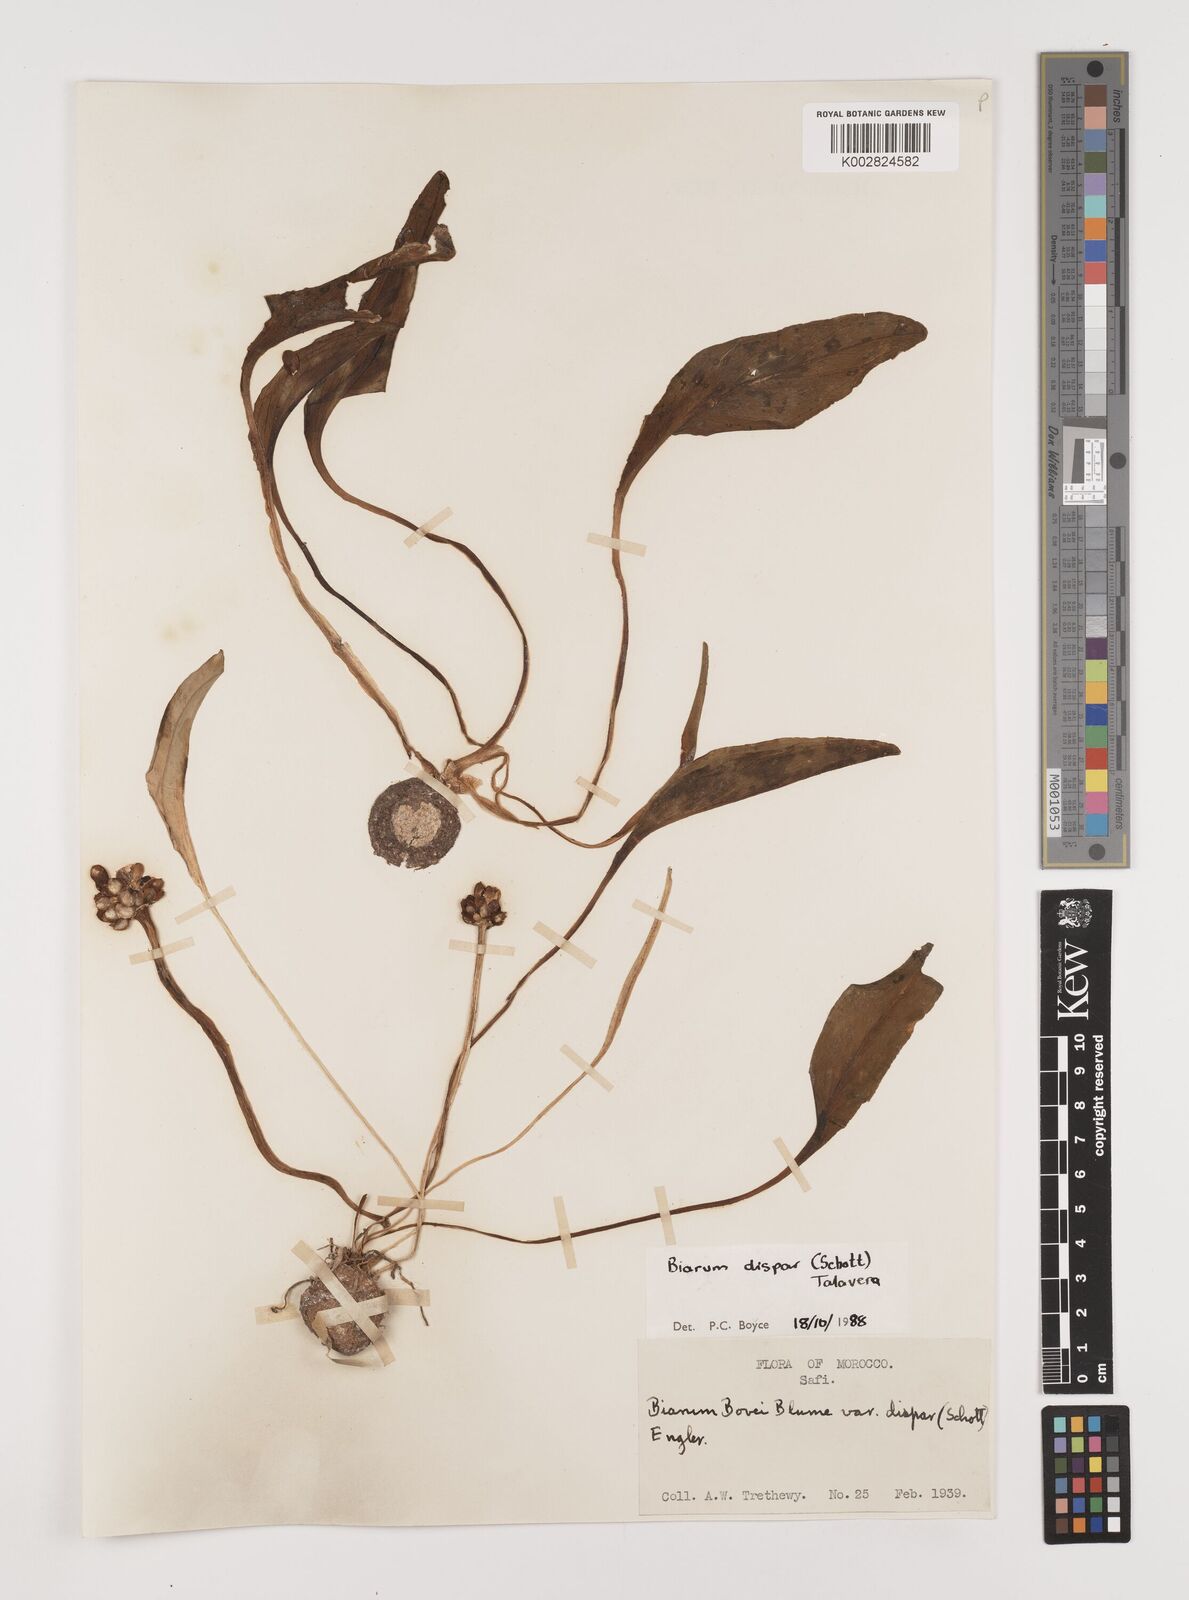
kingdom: Plantae
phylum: Tracheophyta
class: Liliopsida
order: Alismatales
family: Araceae
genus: Biarum
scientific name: Biarum dispar
